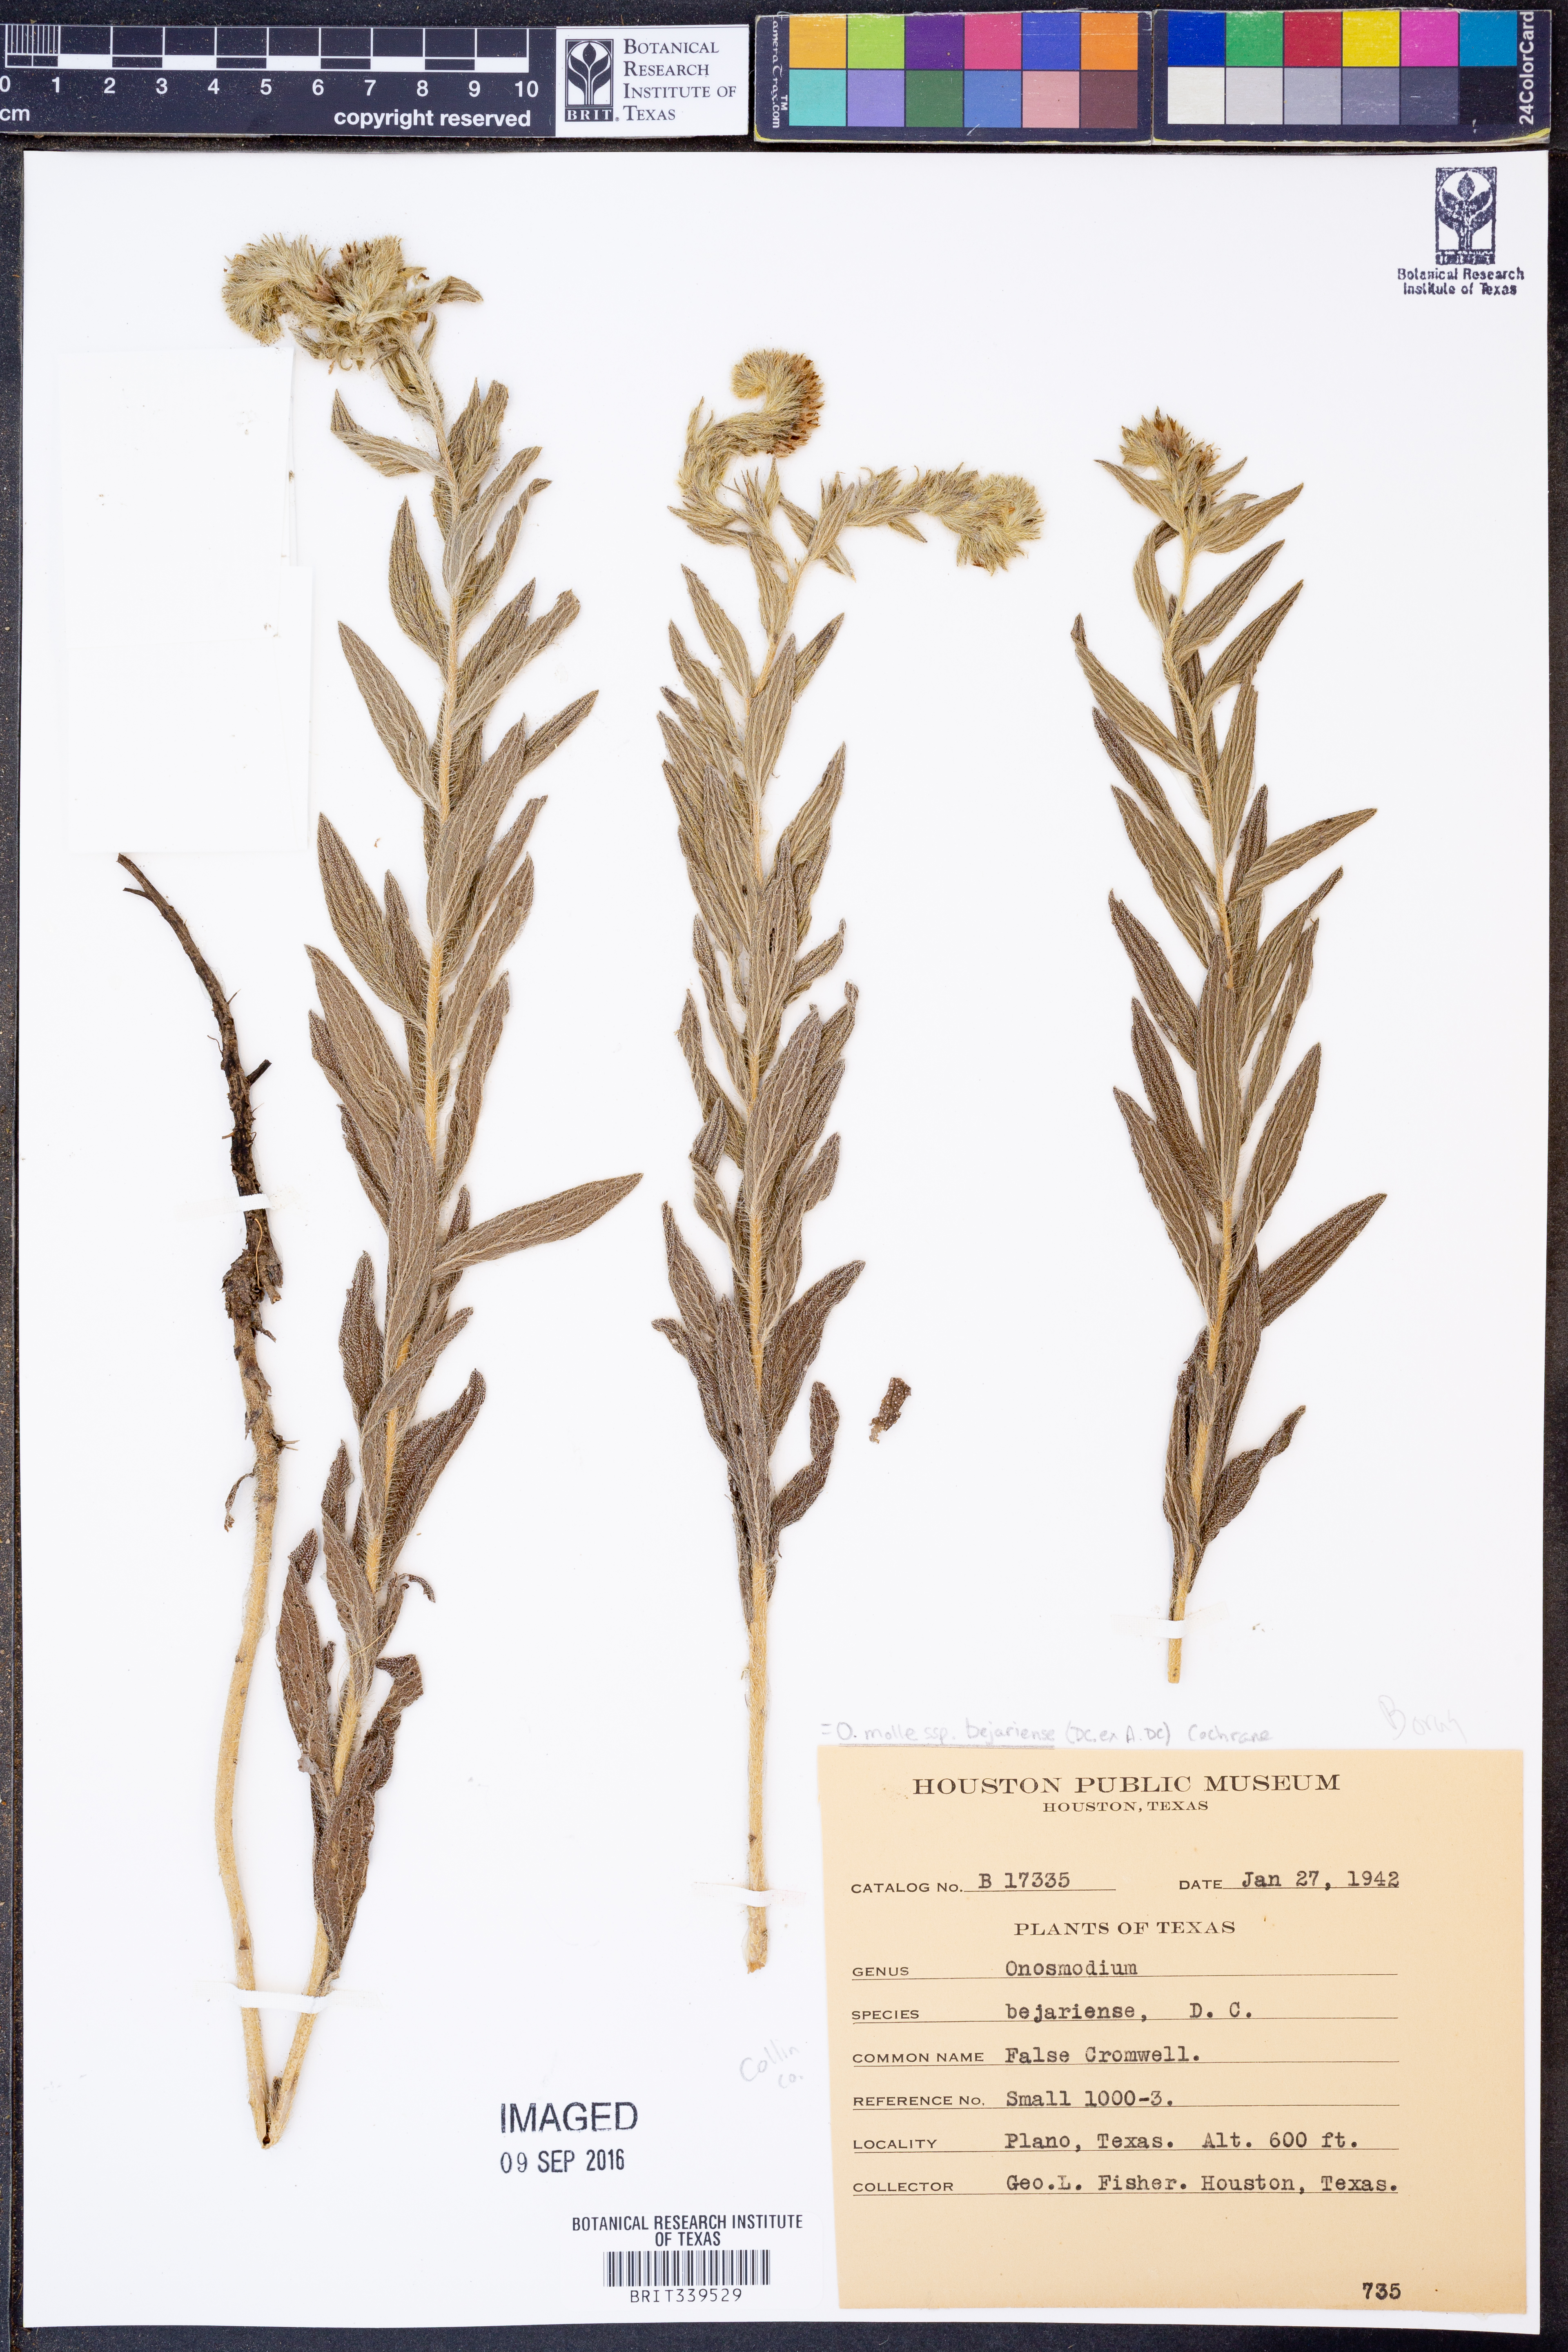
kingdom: Plantae
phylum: Tracheophyta
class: Magnoliopsida
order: Boraginales
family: Boraginaceae
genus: Lithospermum
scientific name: Lithospermum molle
